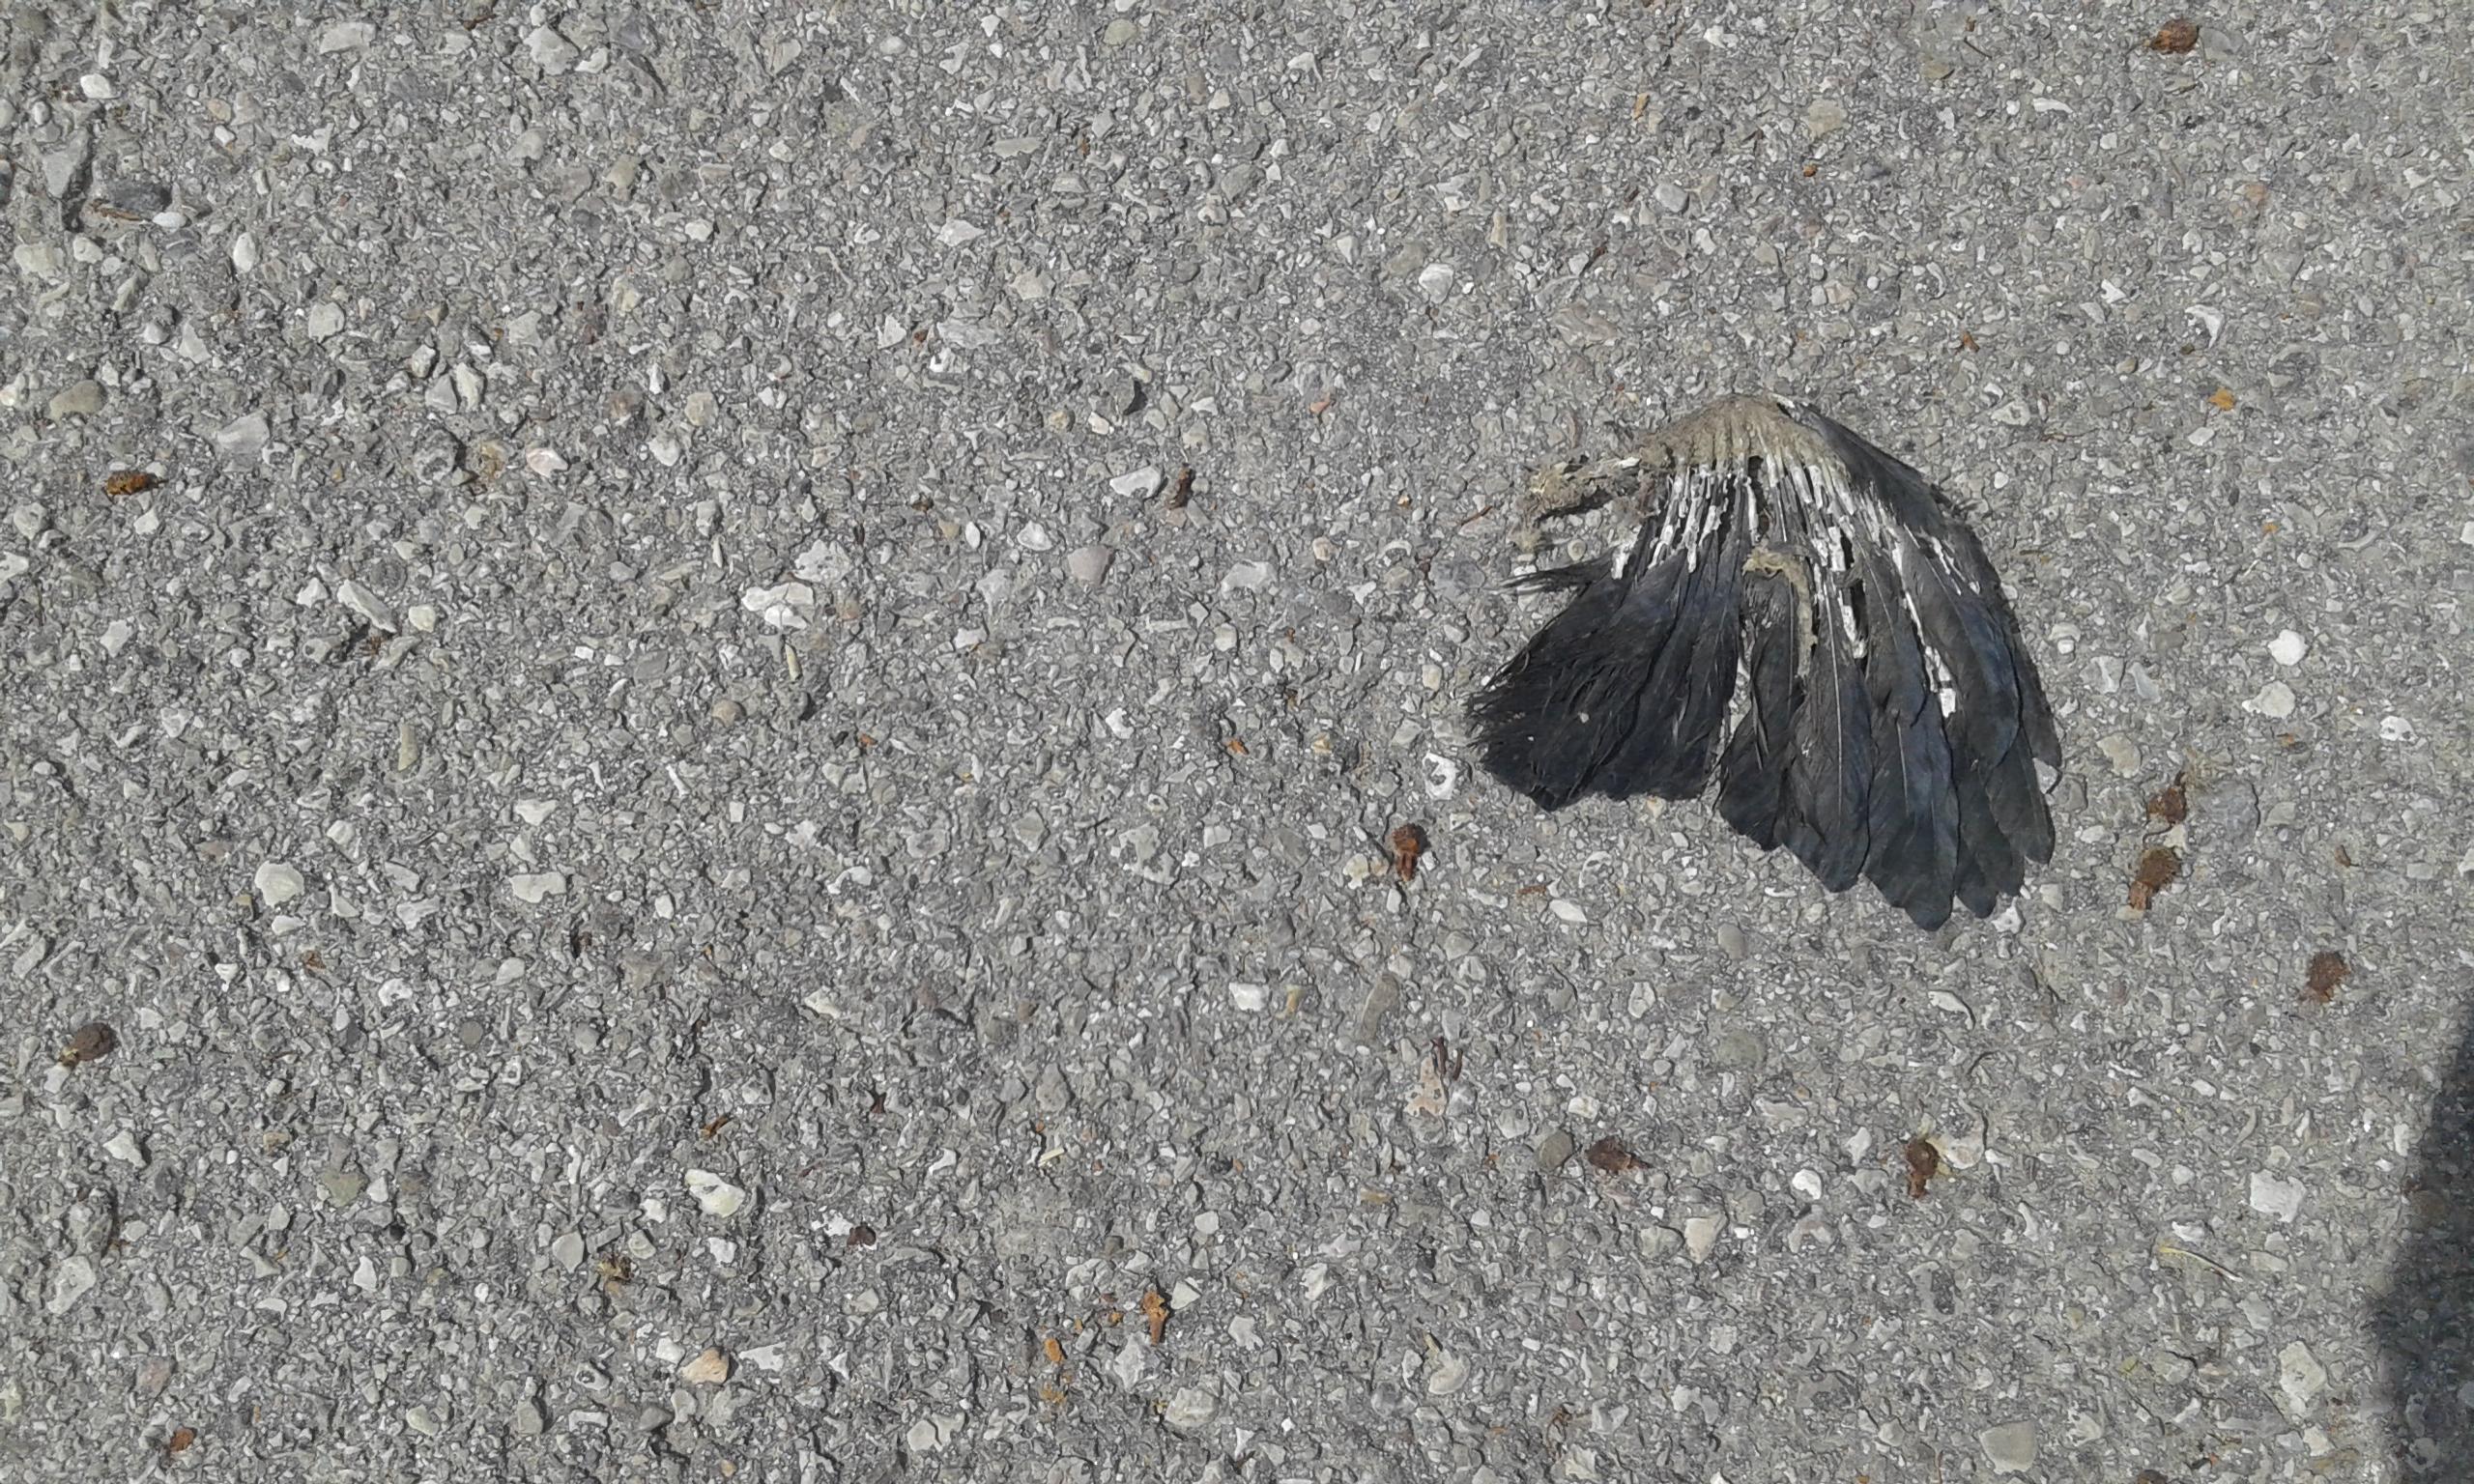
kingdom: Animalia
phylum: Chordata
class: Aves
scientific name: Aves
